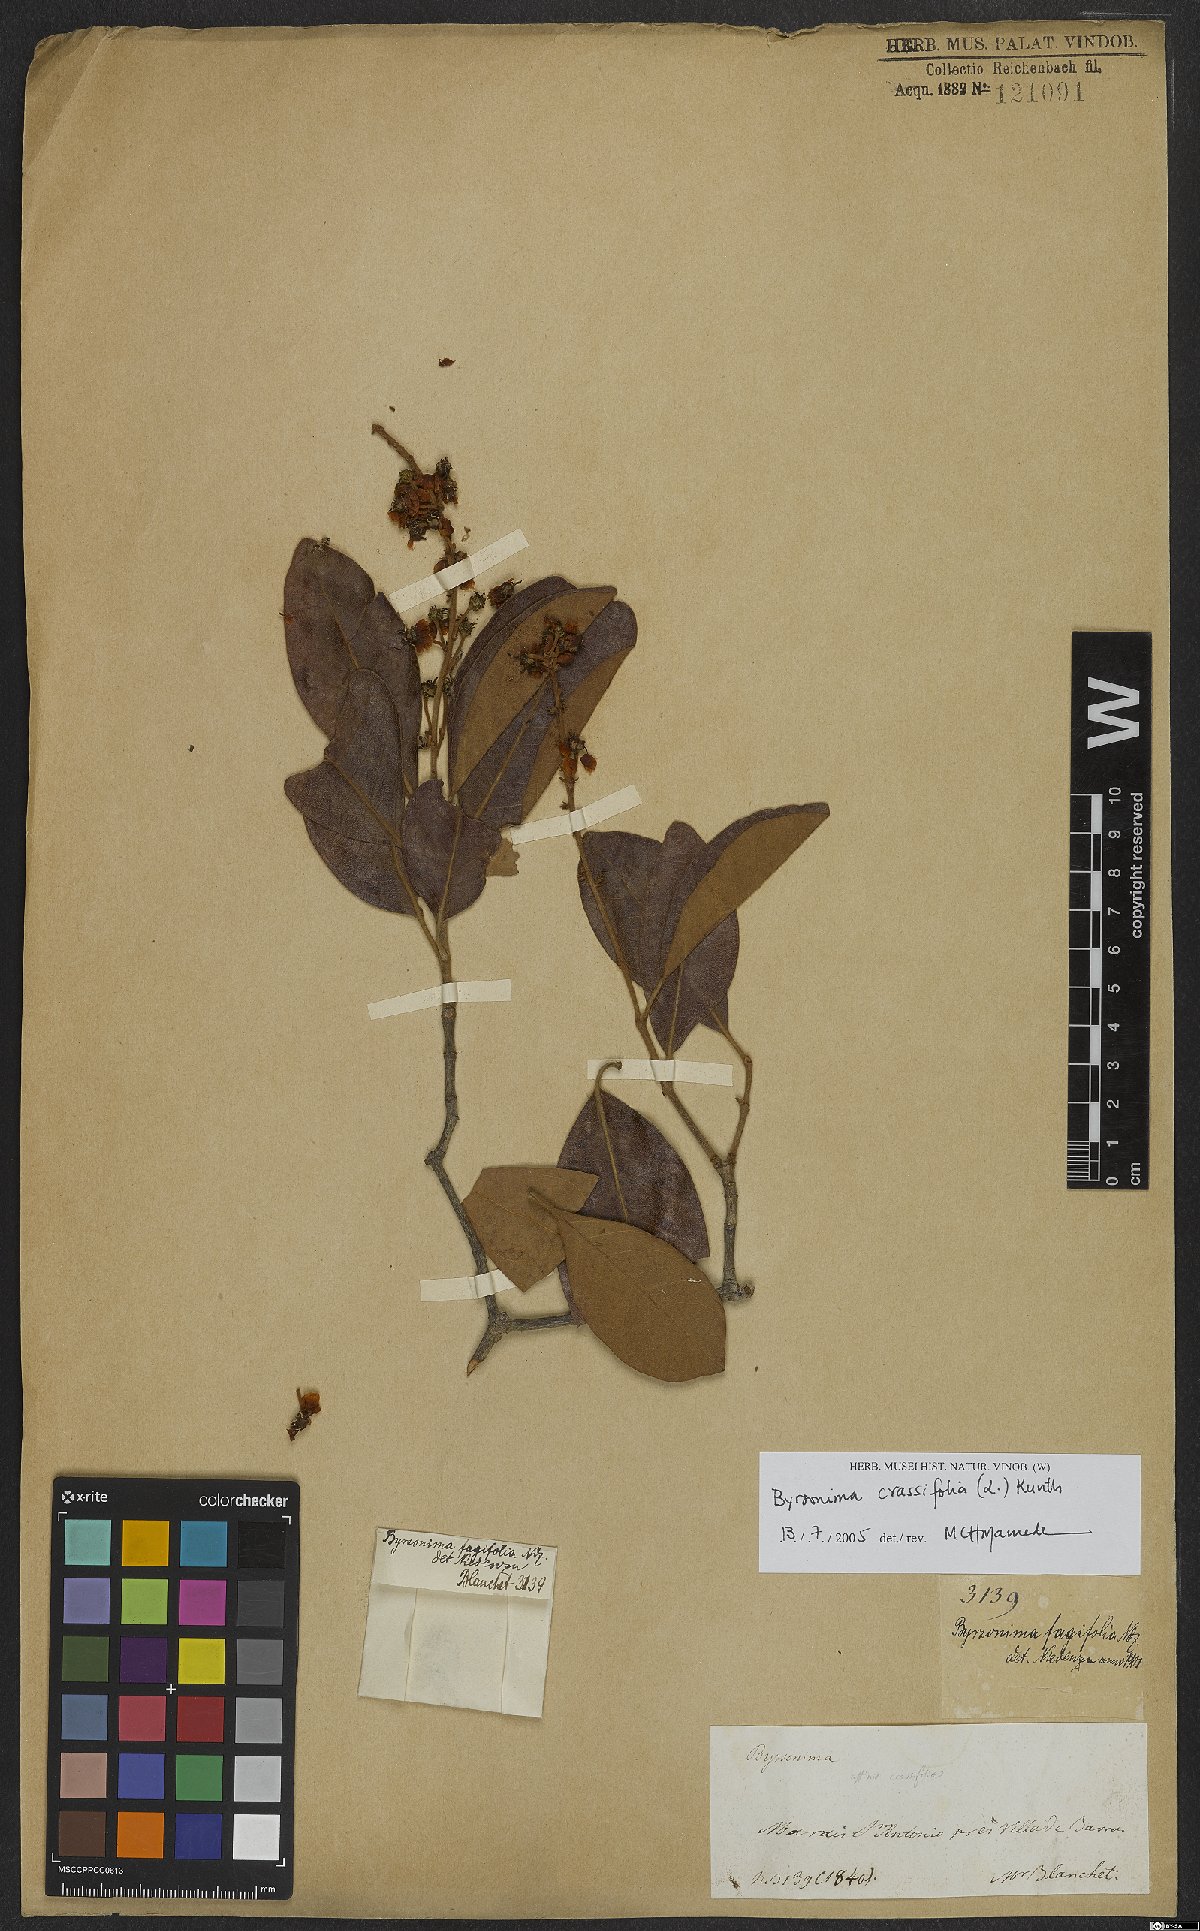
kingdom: Plantae
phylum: Tracheophyta
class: Magnoliopsida
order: Malpighiales
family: Malpighiaceae
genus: Byrsonima
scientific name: Byrsonima crassifolia
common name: Golden spoon
